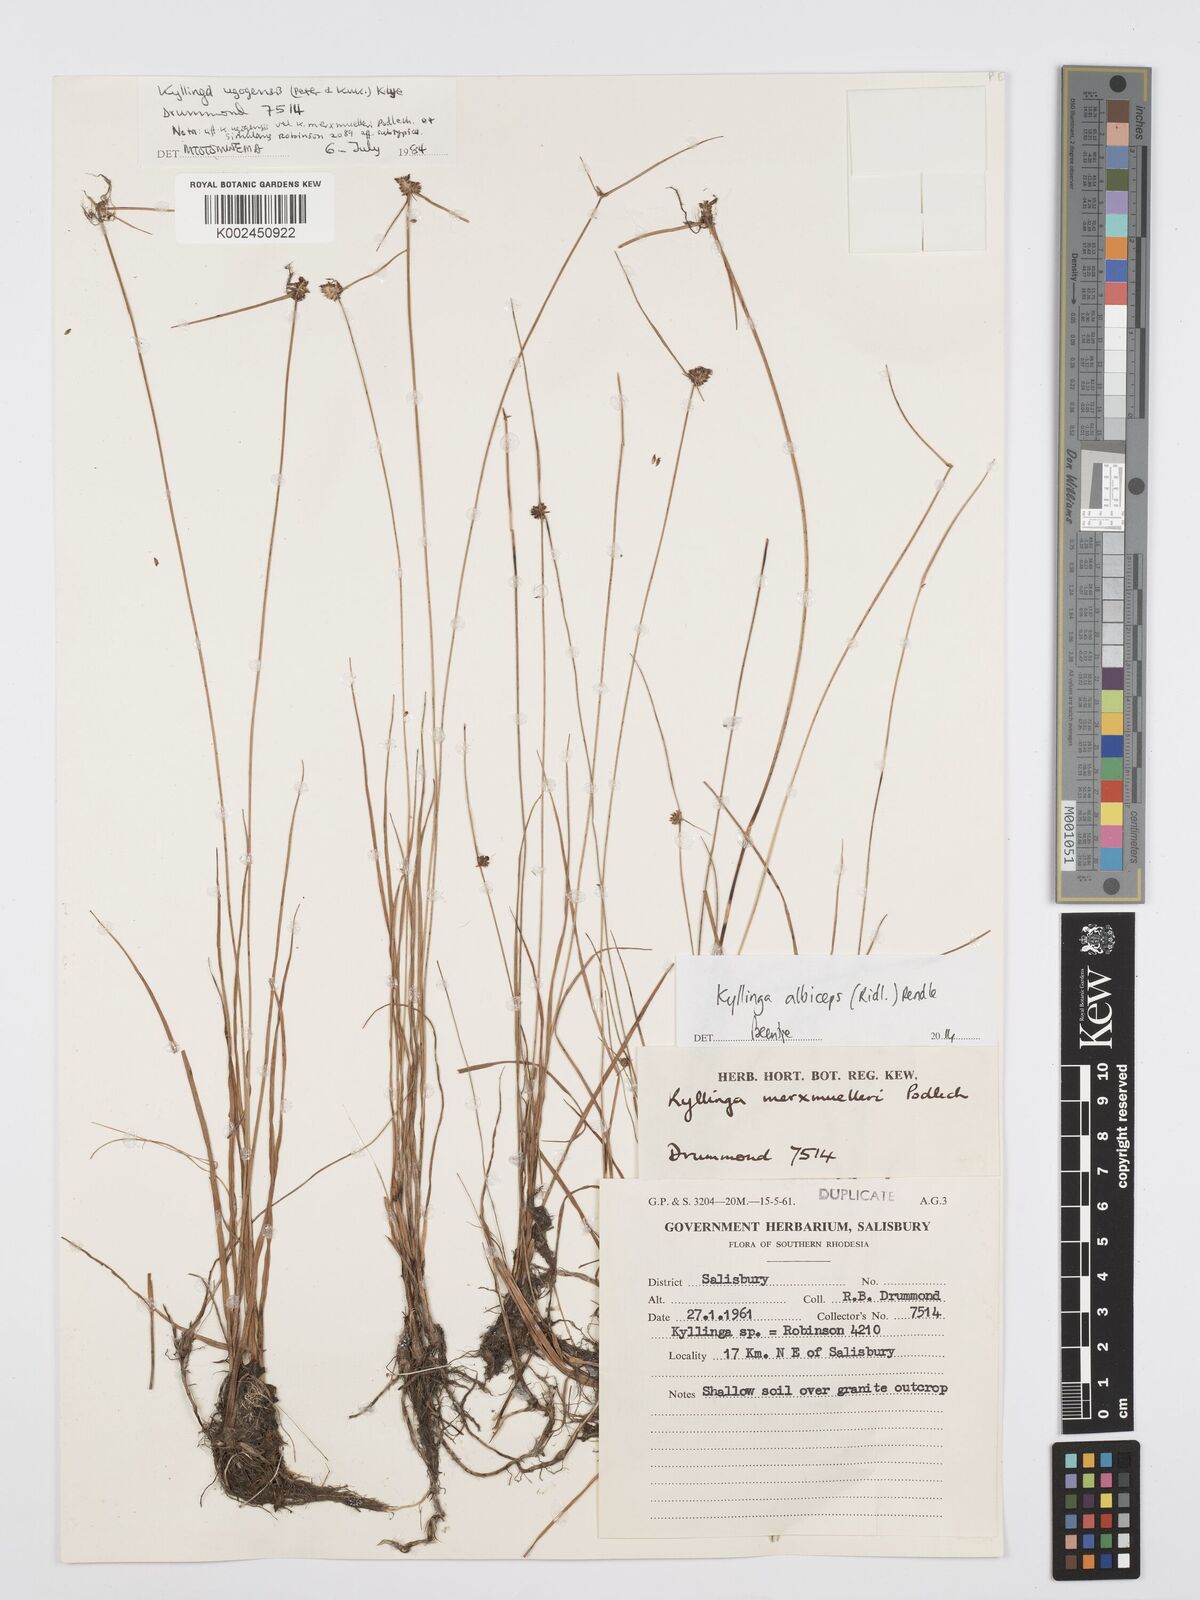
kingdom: Plantae
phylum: Tracheophyta
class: Liliopsida
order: Poales
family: Cyperaceae
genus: Cyperus
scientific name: Cyperus albiceps
